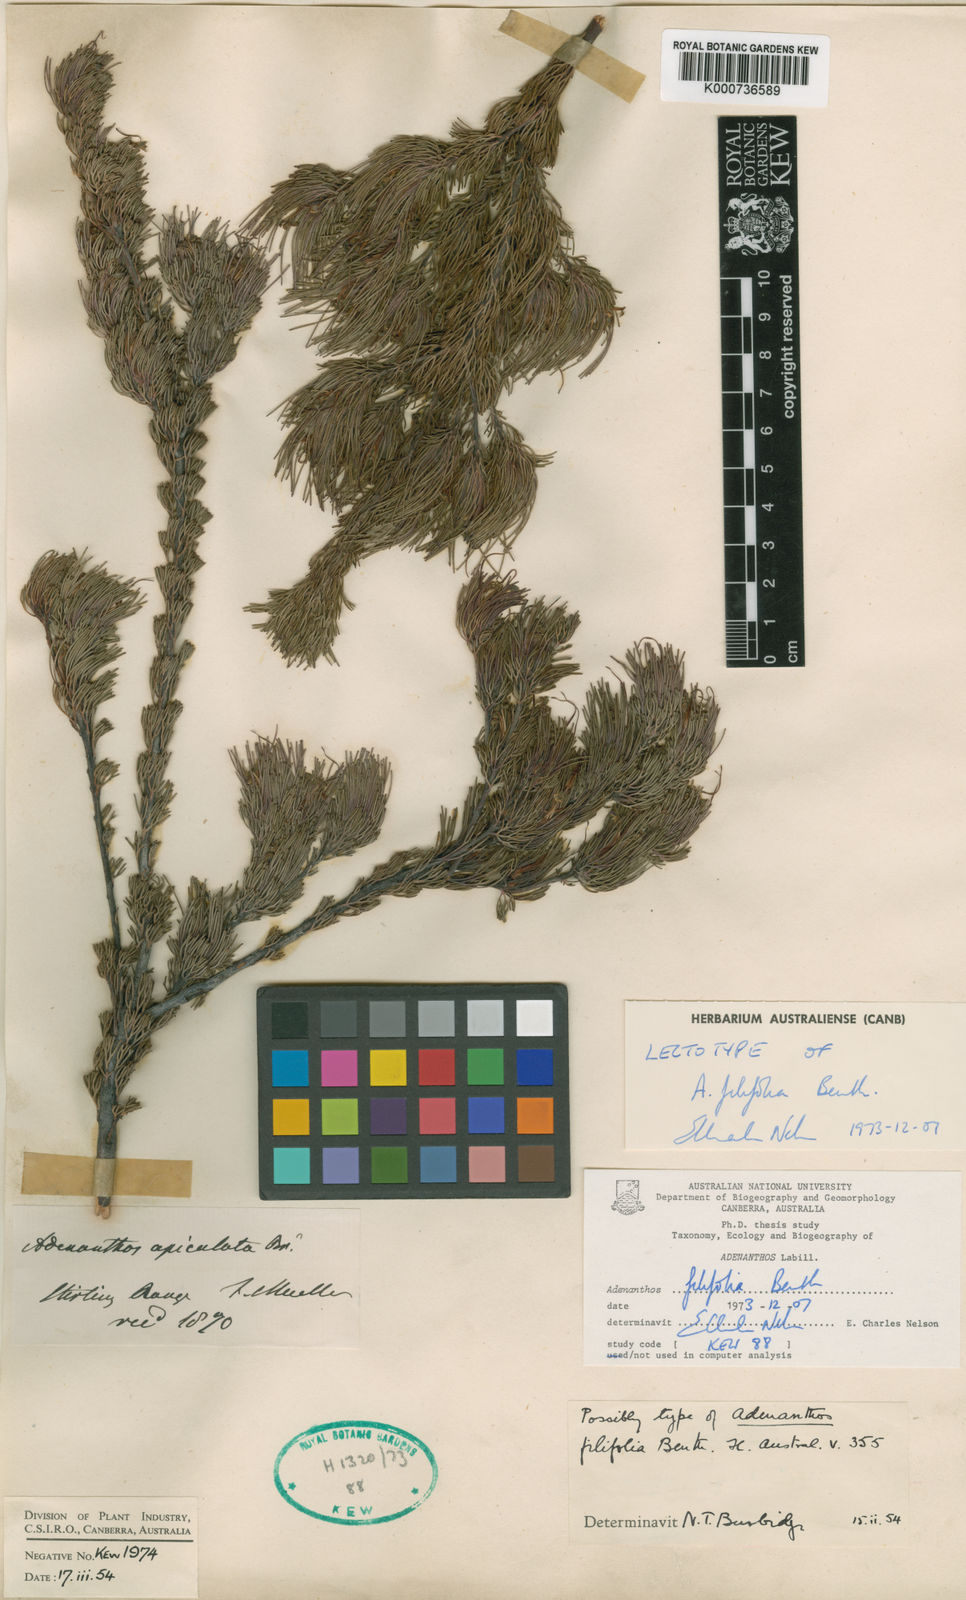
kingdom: Plantae
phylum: Tracheophyta
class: Magnoliopsida
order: Proteales
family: Proteaceae
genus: Adenanthos
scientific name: Adenanthos filifolius
